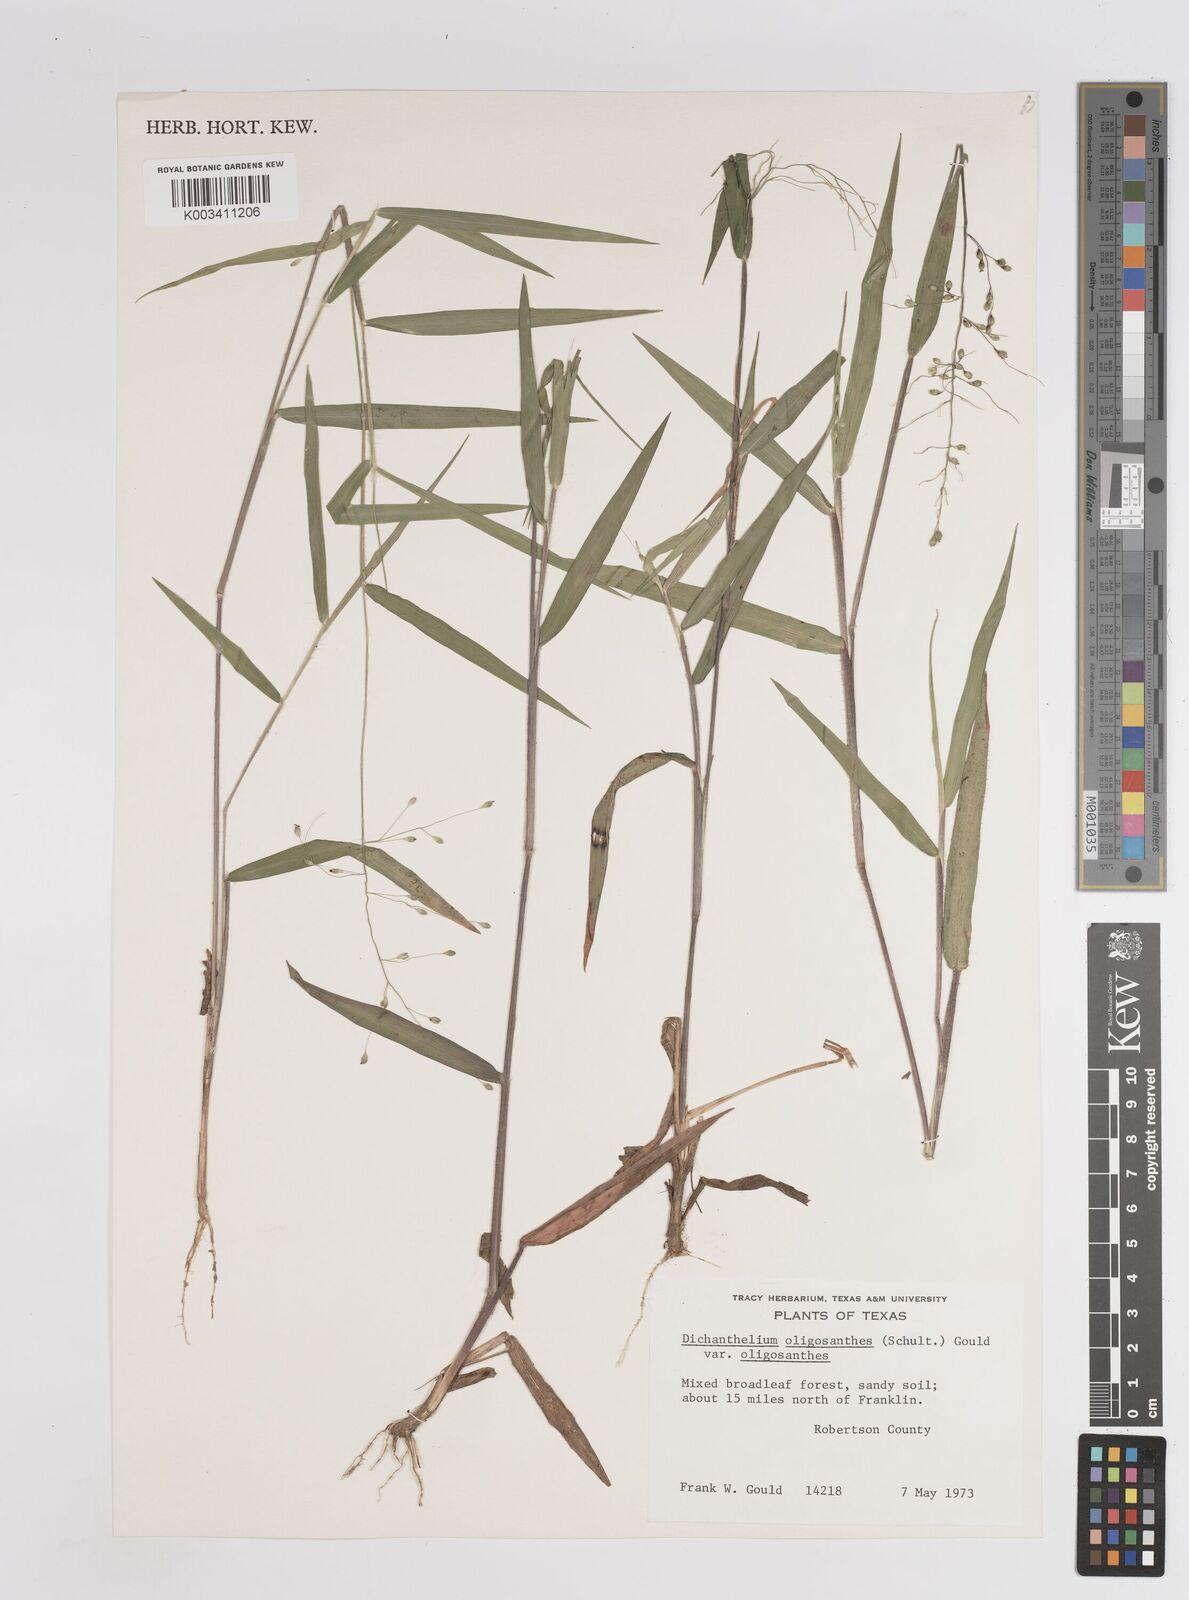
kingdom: Plantae
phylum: Tracheophyta
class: Liliopsida
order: Poales
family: Poaceae
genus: Dichanthelium
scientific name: Dichanthelium oligosanthes
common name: Few-anther obscuregrass
